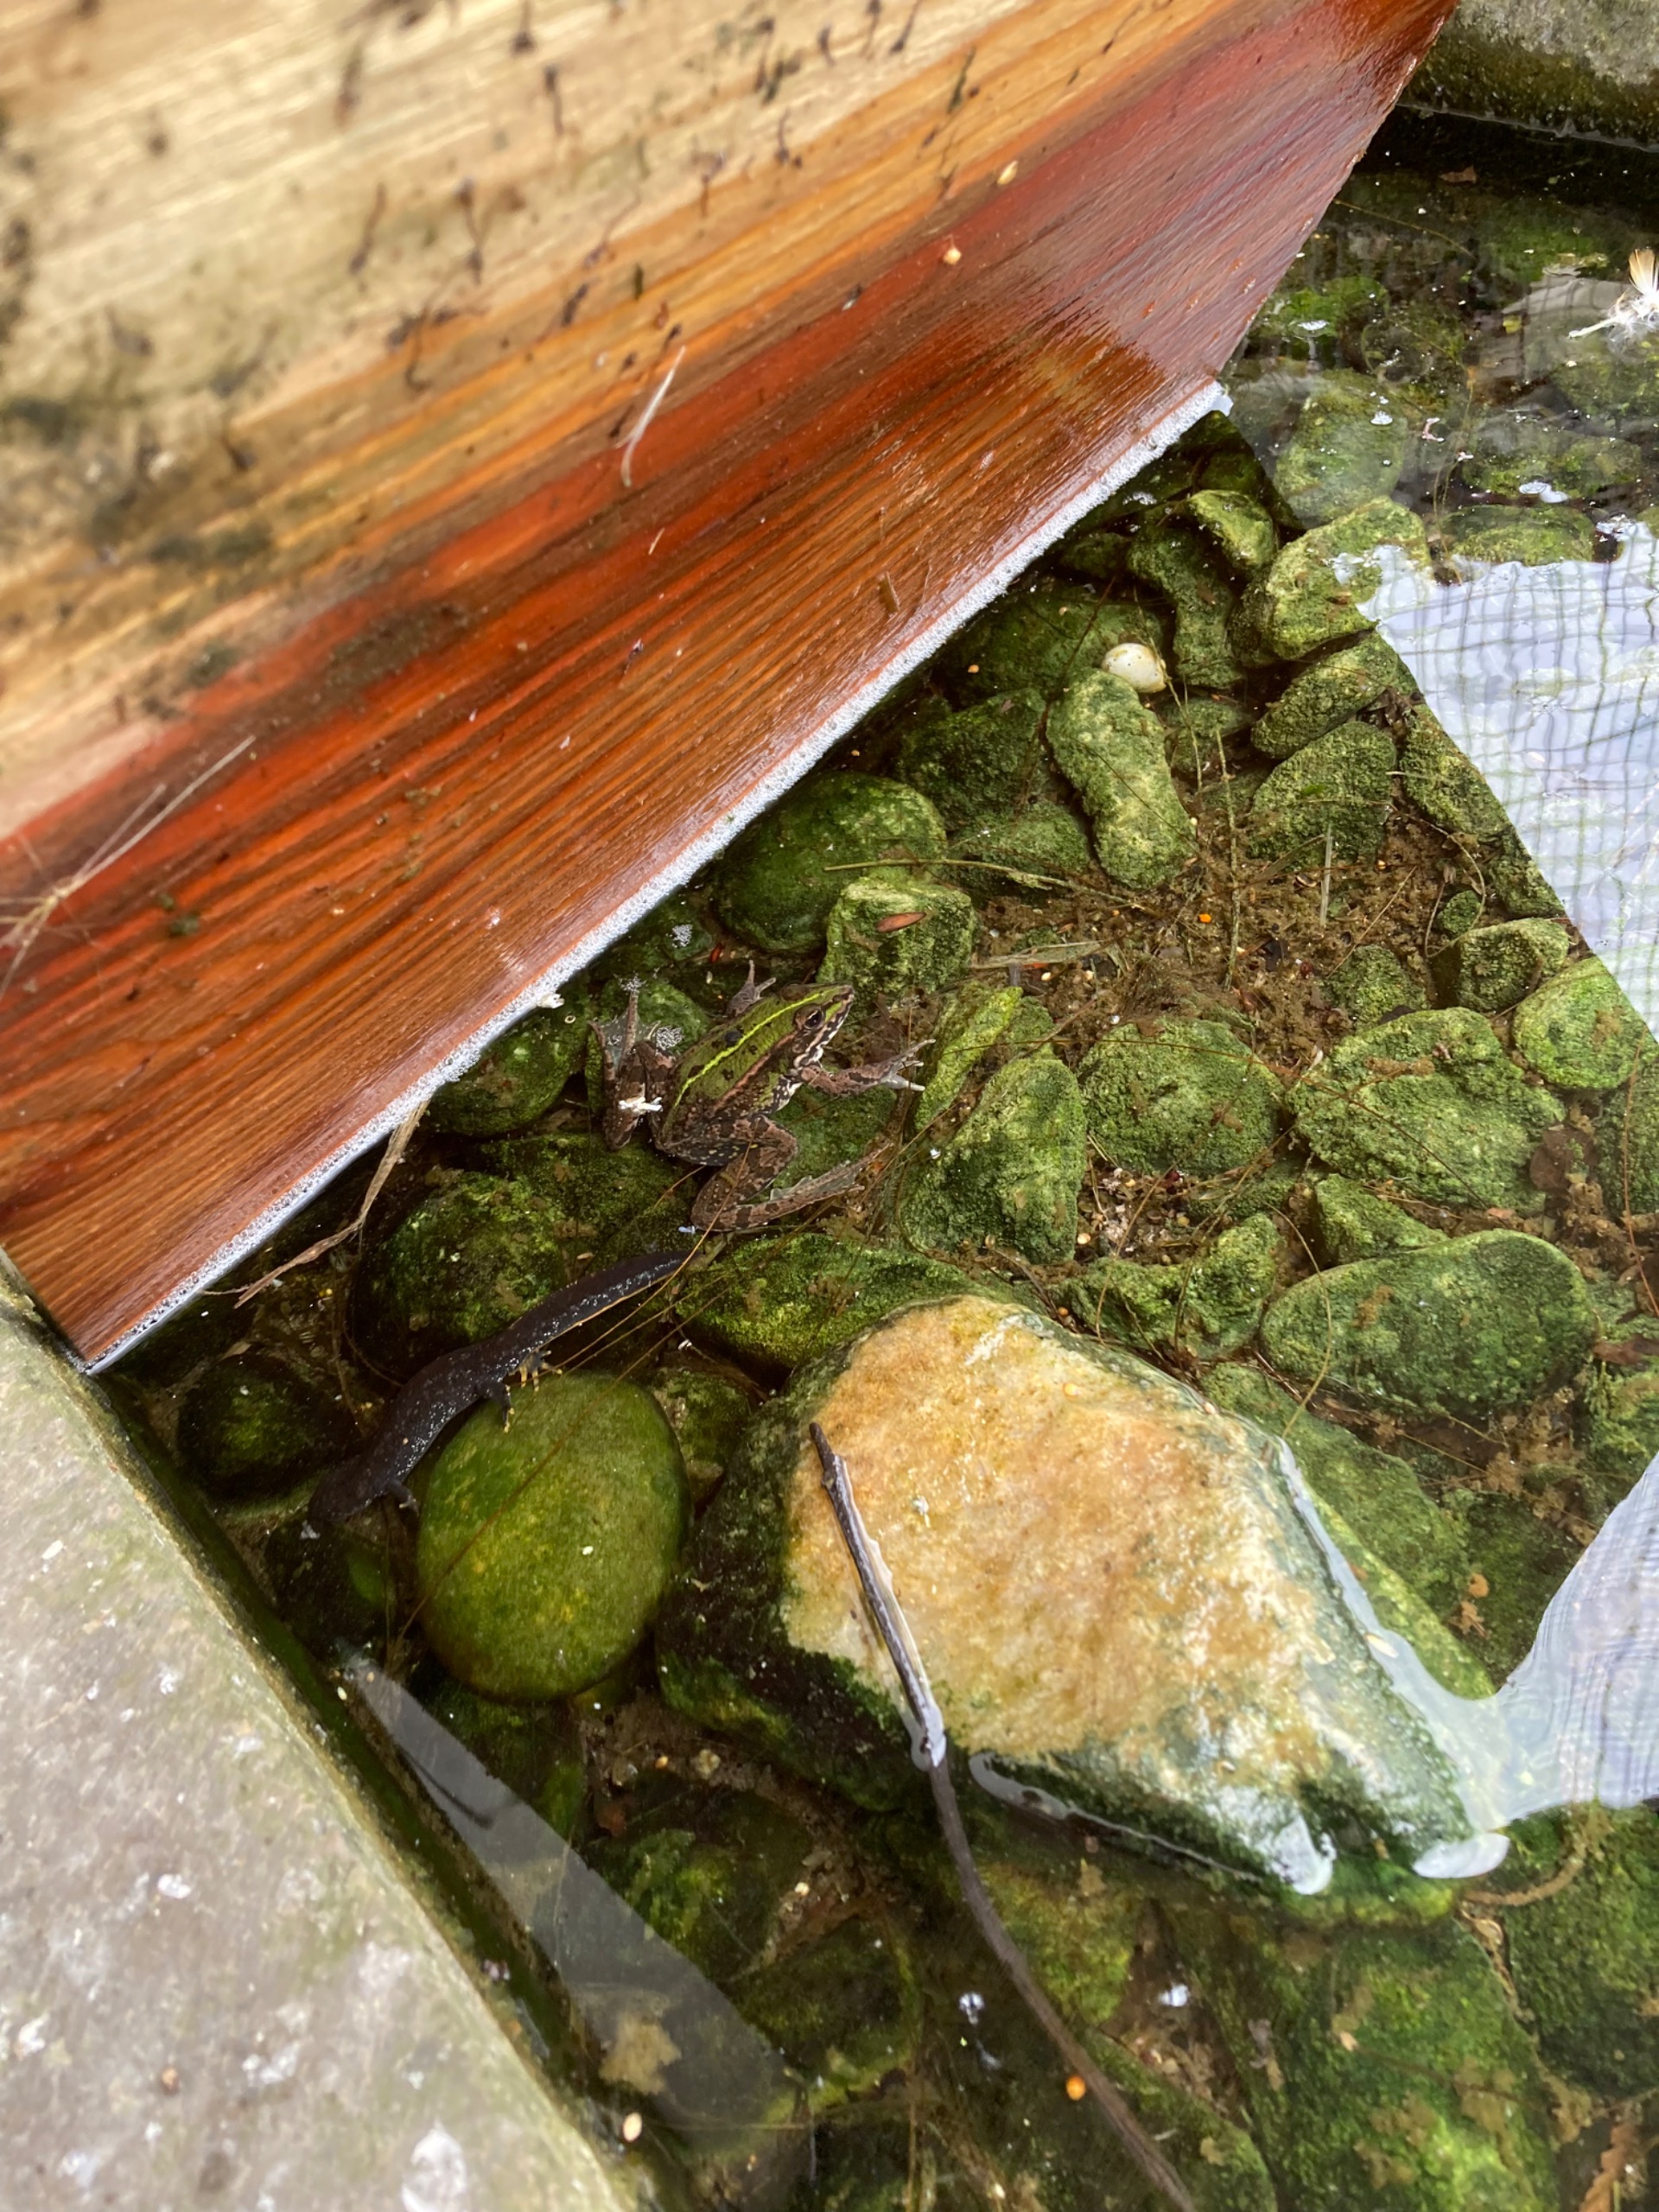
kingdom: Animalia
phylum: Chordata
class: Amphibia
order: Anura
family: Ranidae
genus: Pelophylax
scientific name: Pelophylax lessonae
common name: Grøn frø
